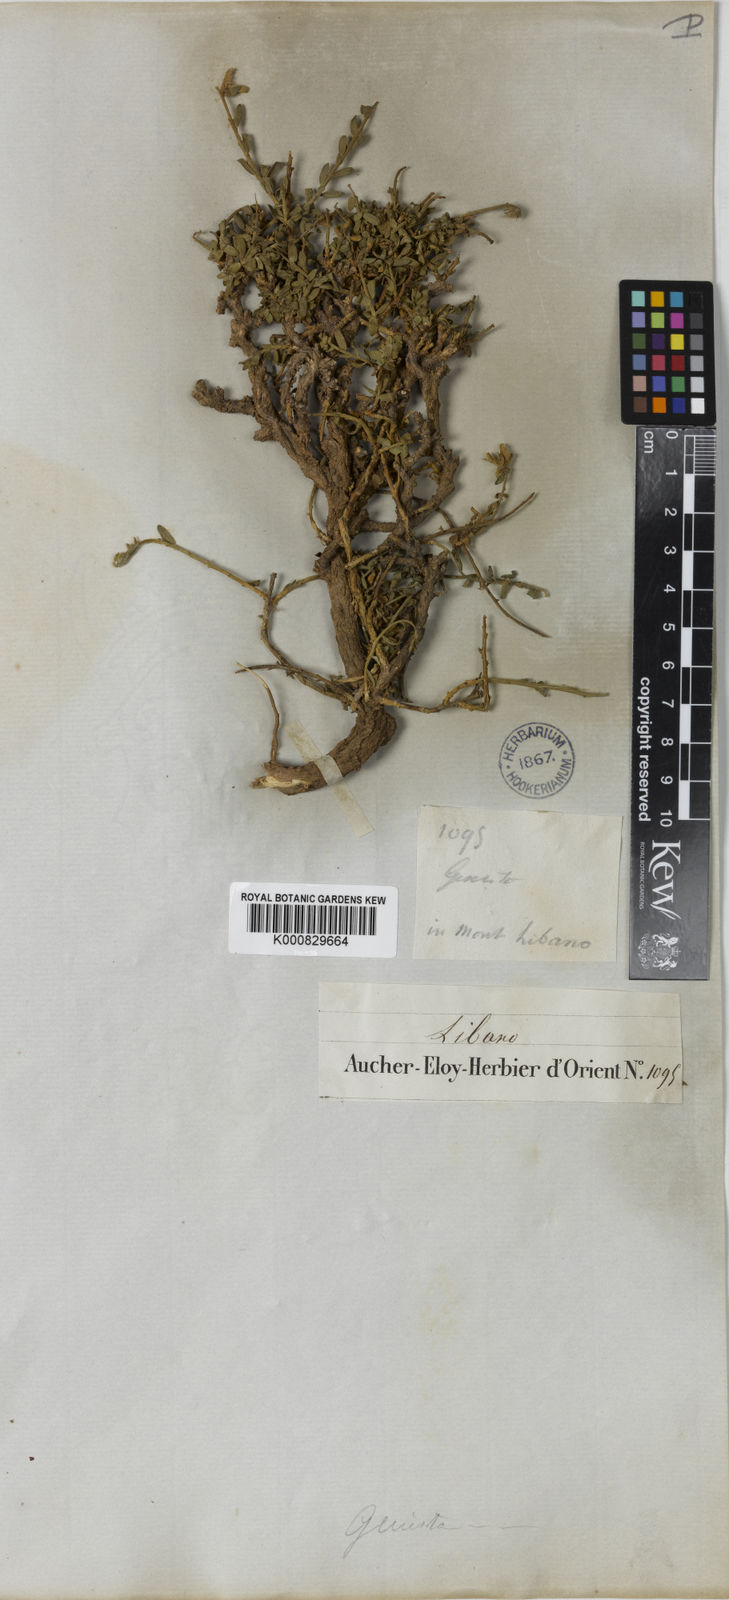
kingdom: Plantae
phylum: Tracheophyta
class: Magnoliopsida
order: Fabales
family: Fabaceae
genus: Genista
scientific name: Genista libanotica
